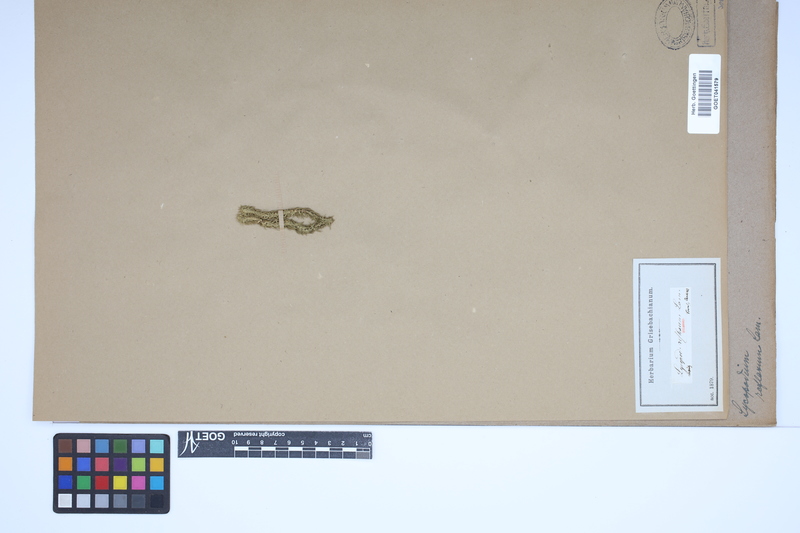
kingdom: Plantae
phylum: Tracheophyta
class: Lycopodiopsida
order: Lycopodiales
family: Lycopodiaceae
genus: Huperzia
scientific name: Huperzia lucidula
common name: Shining clubmoss
